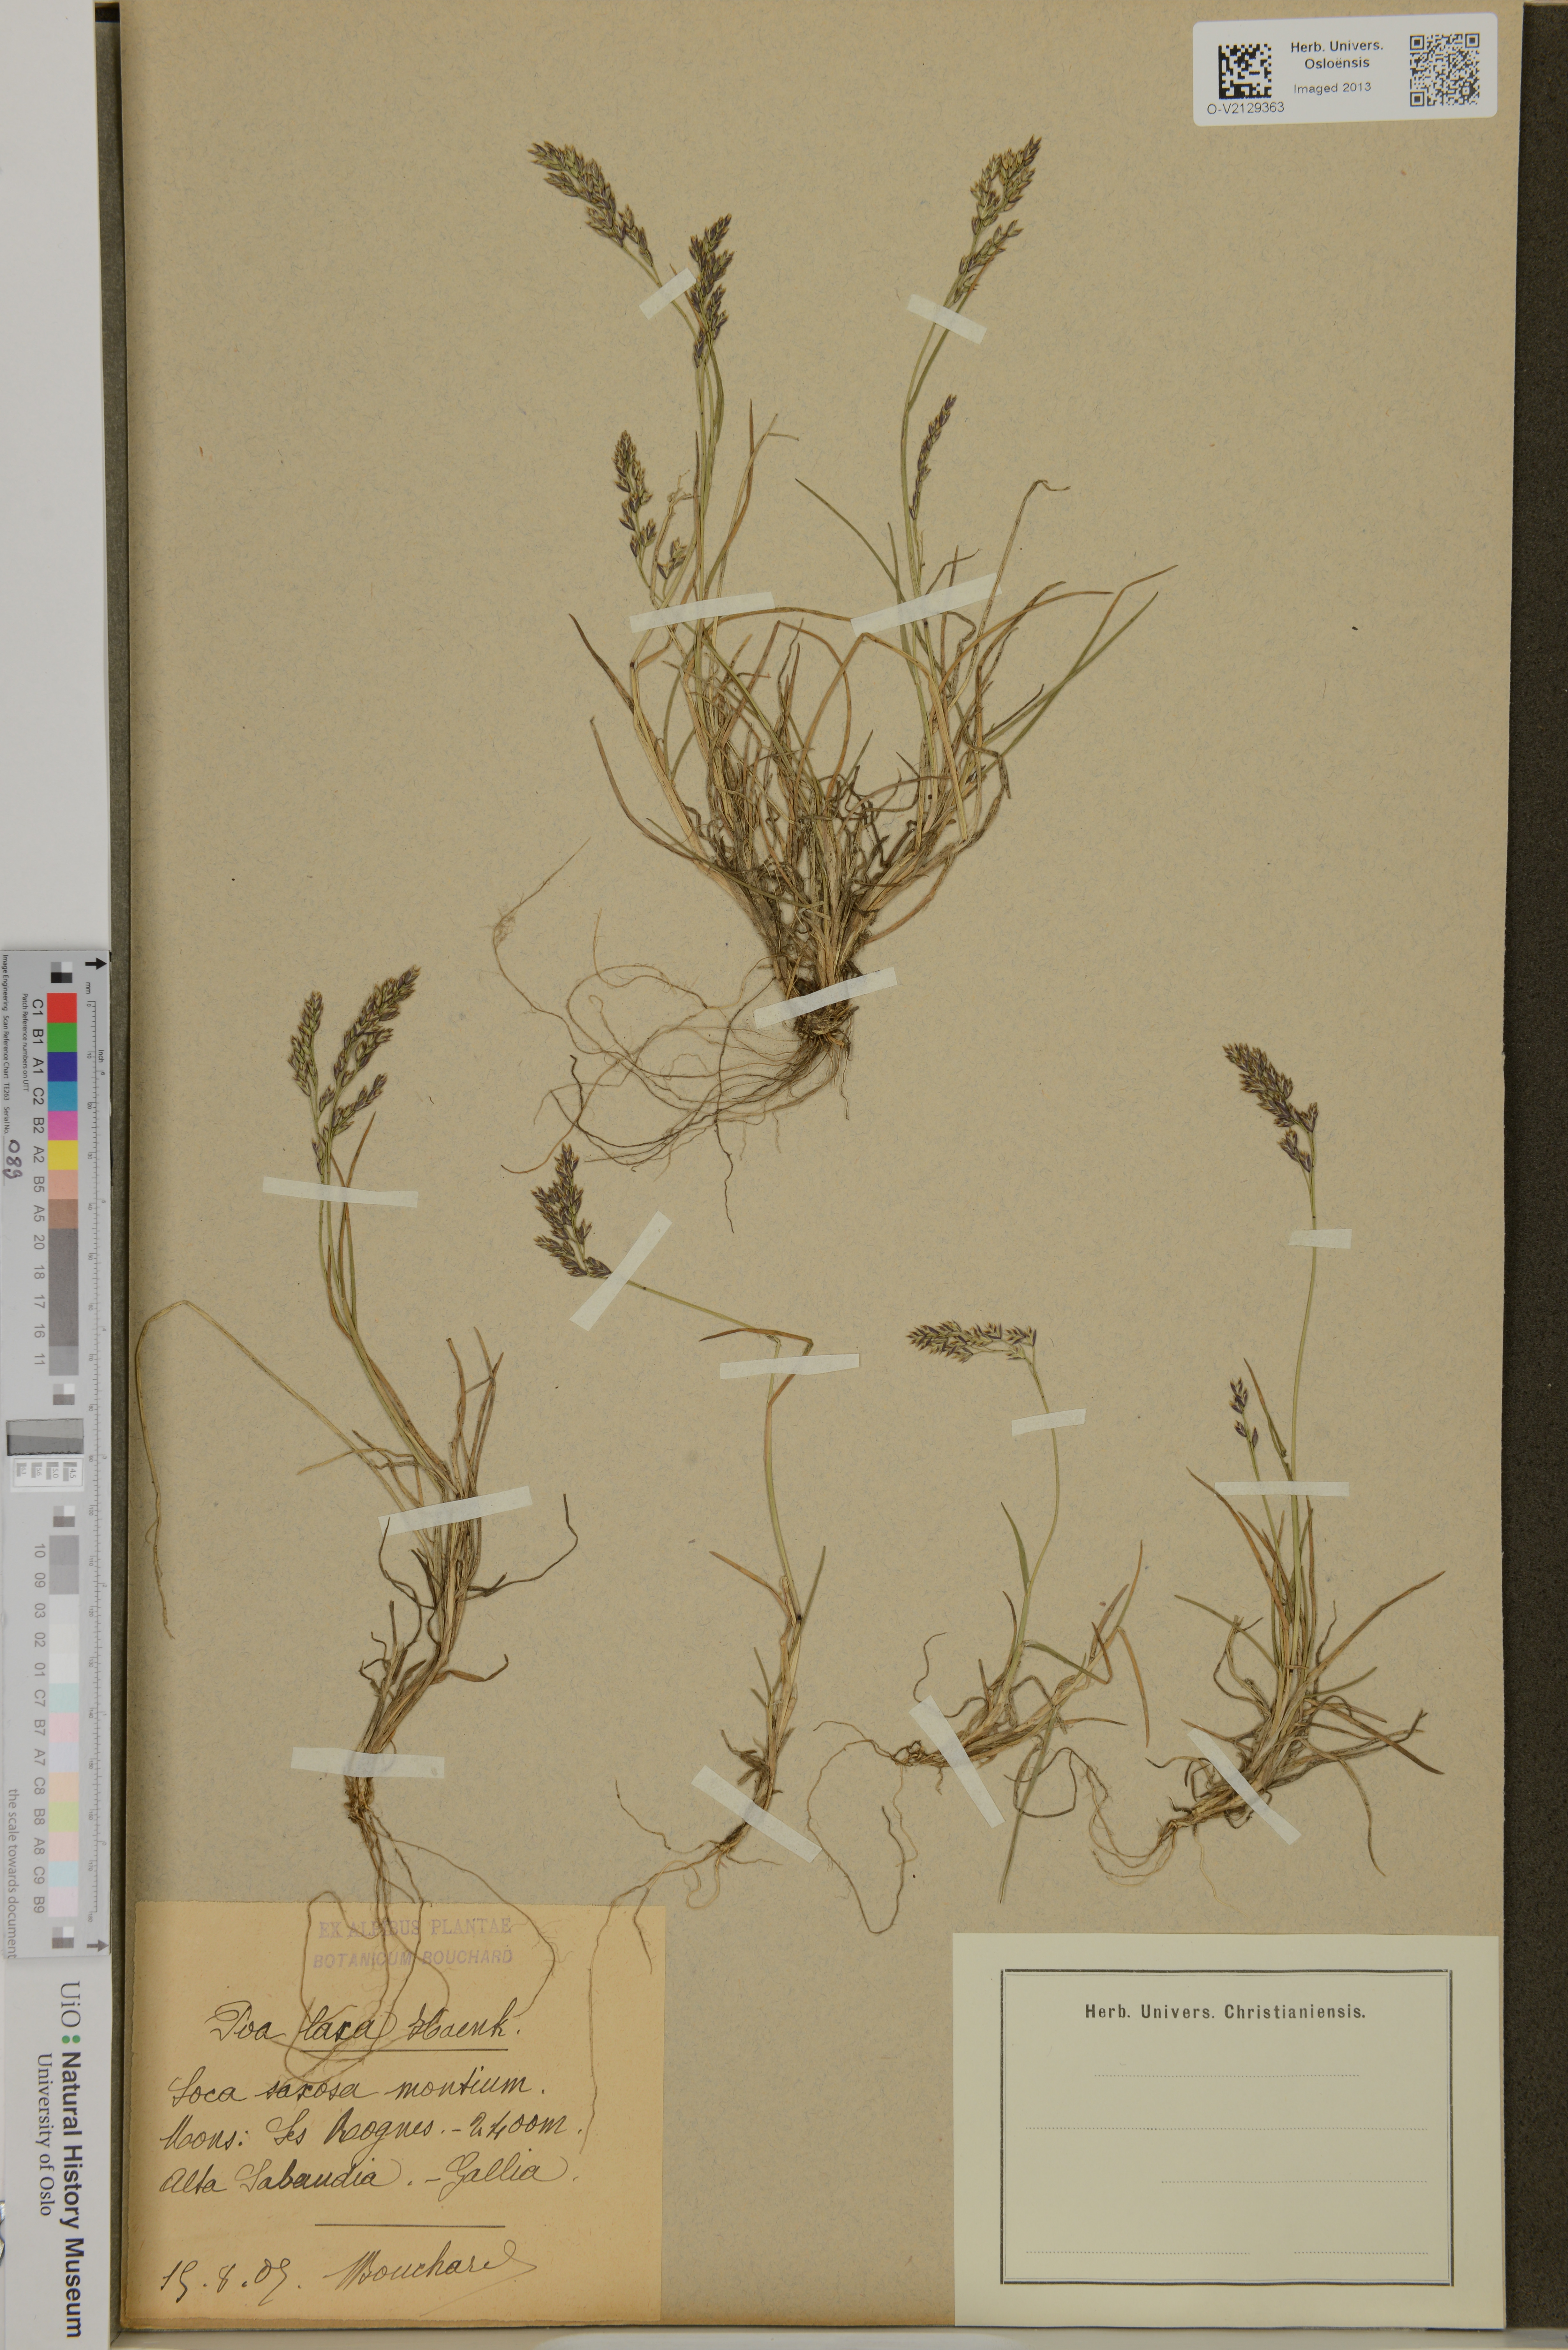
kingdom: Plantae
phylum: Tracheophyta
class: Liliopsida
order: Poales
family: Poaceae
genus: Poa
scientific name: Poa laxa
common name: Lax bluegrass
